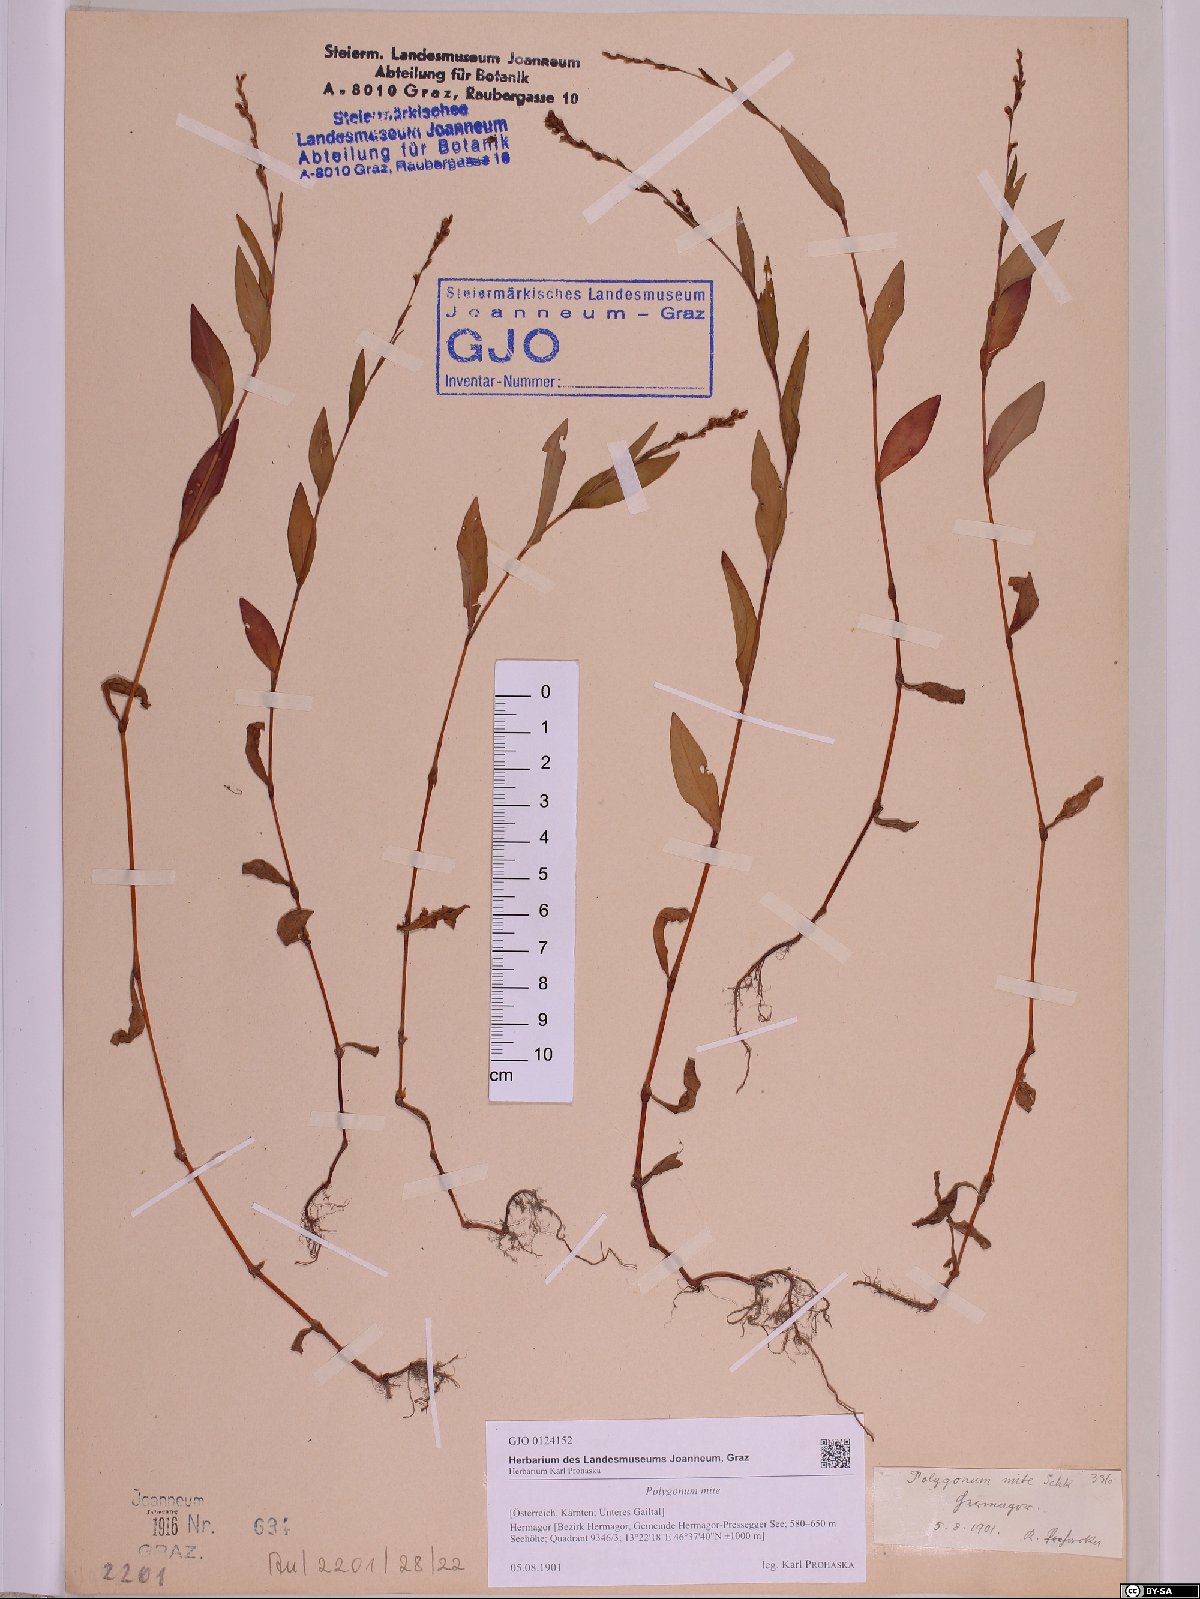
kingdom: Plantae
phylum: Tracheophyta
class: Magnoliopsida
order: Caryophyllales
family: Polygonaceae
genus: Persicaria
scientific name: Persicaria mitis
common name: Tasteless water-pepper
